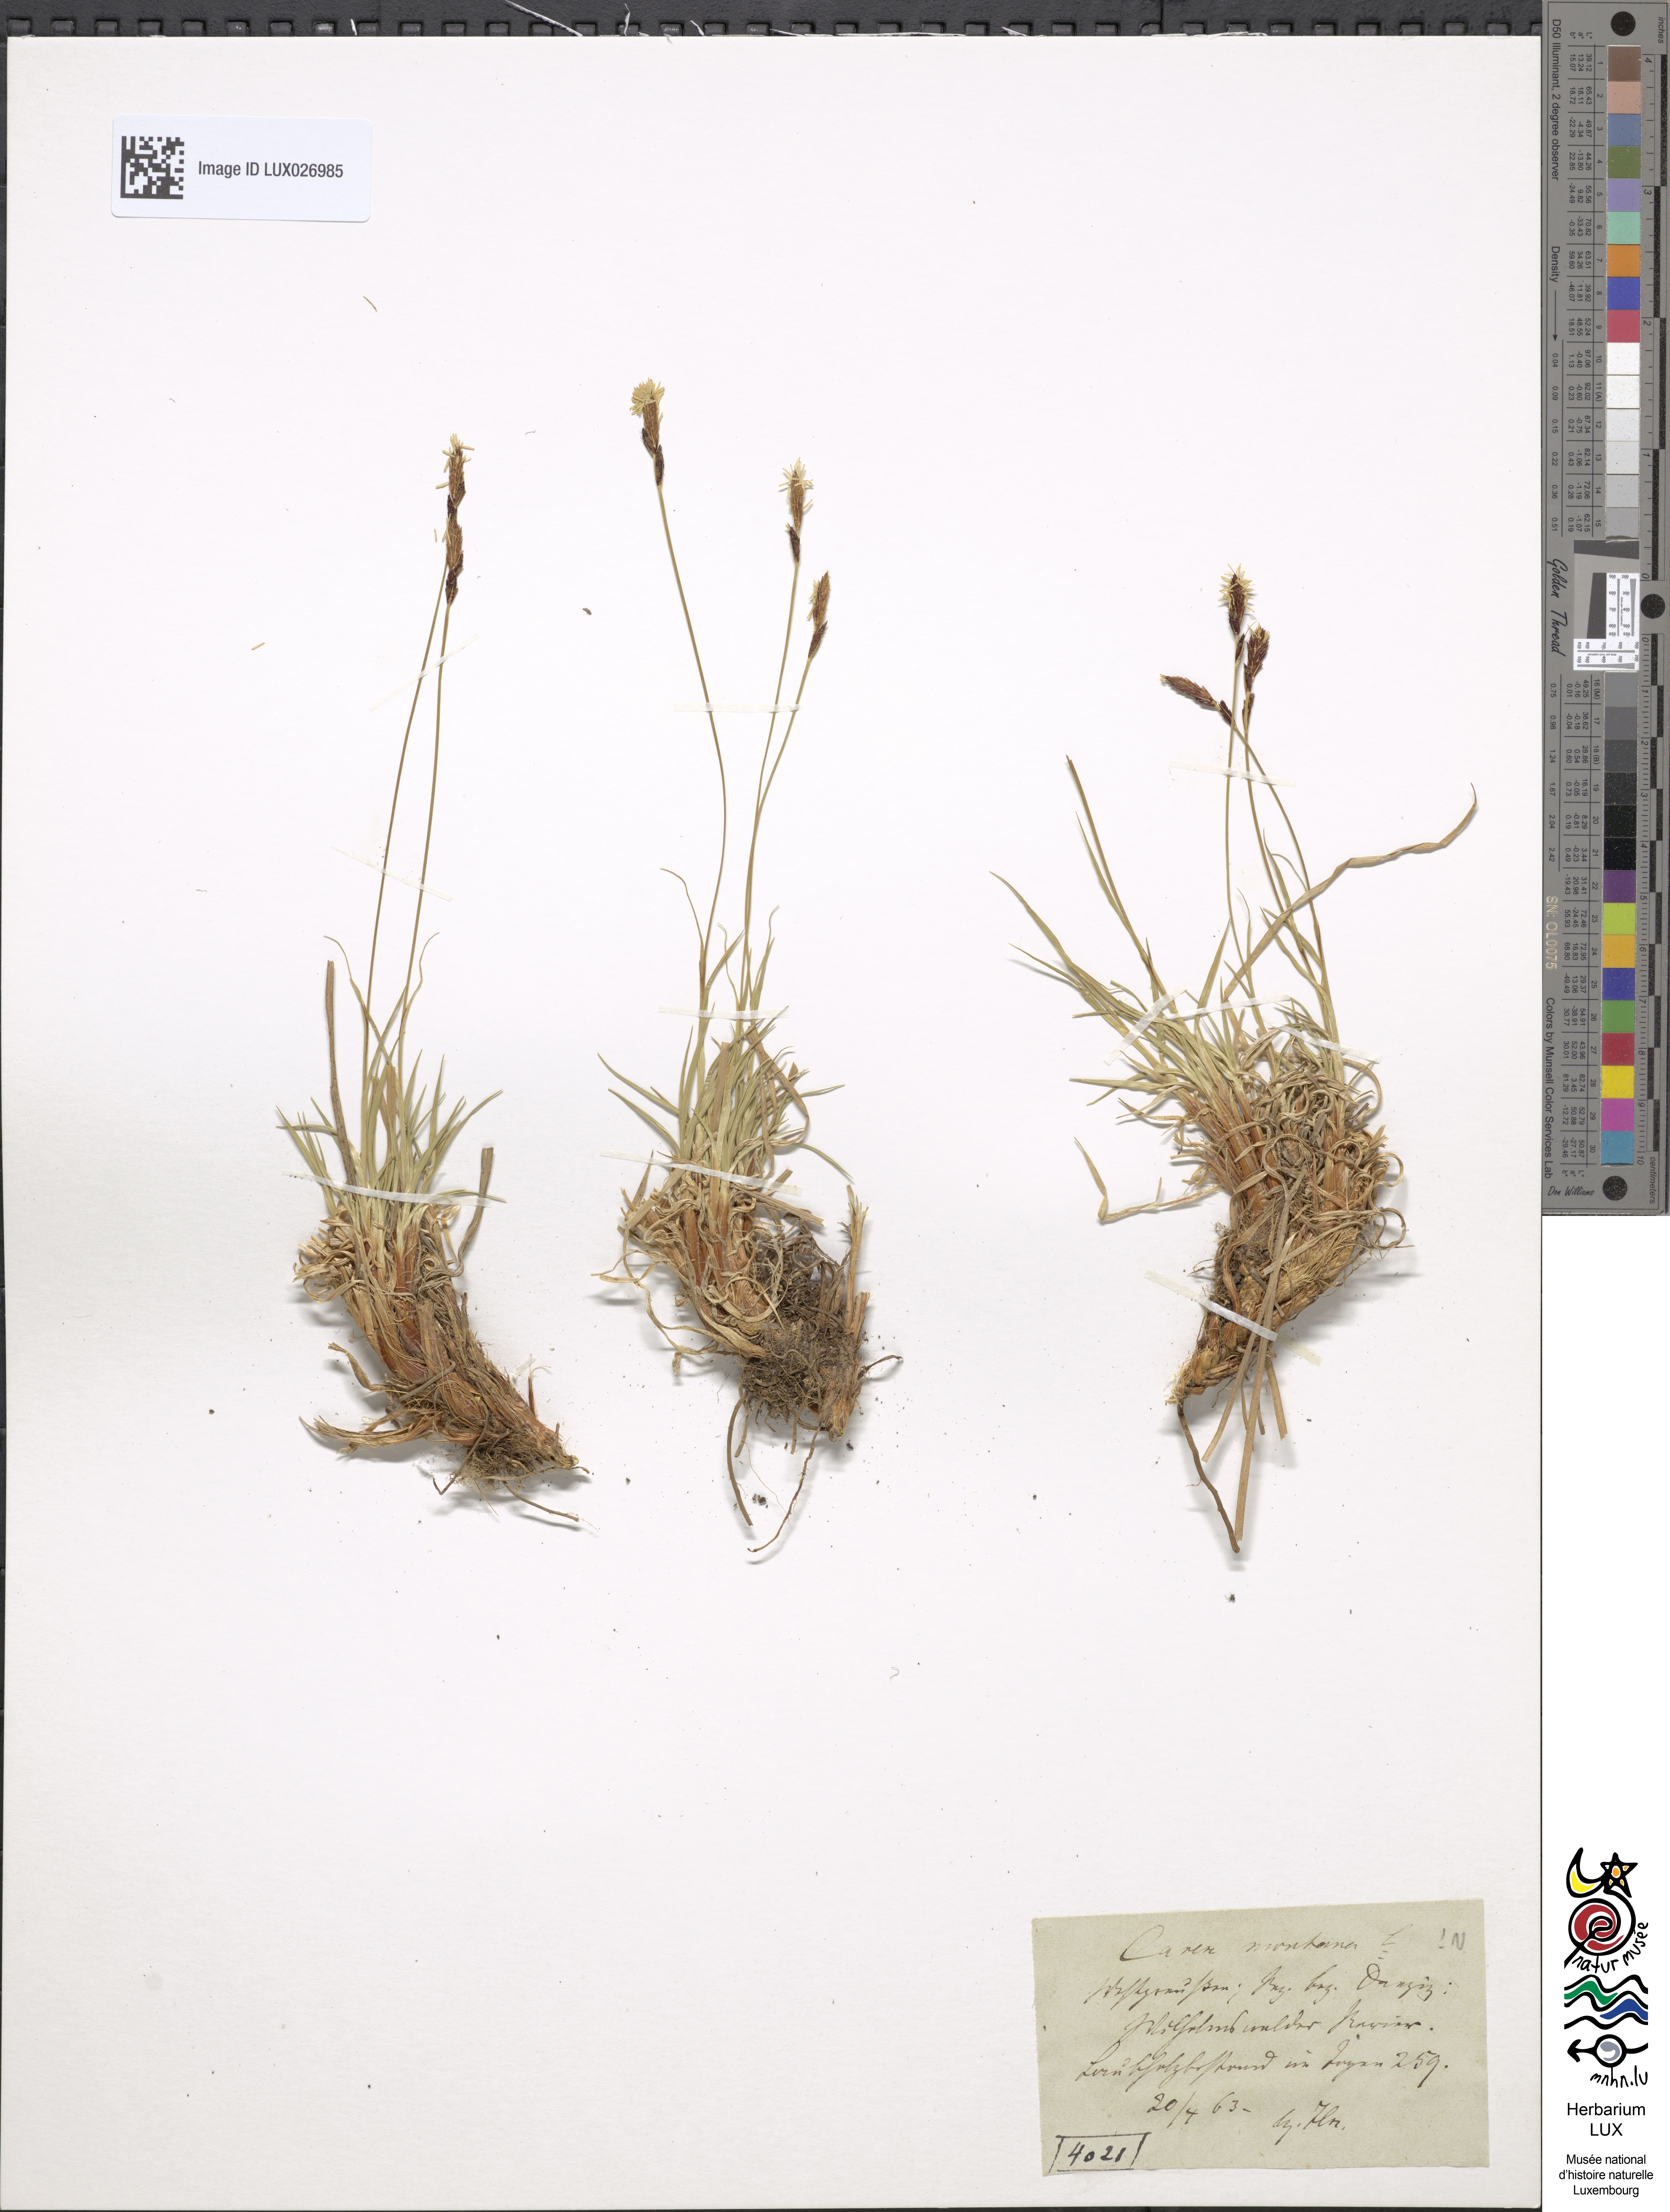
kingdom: Plantae
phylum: Tracheophyta
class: Liliopsida
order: Poales
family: Cyperaceae
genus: Carex
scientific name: Carex montana
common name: Soft-leaved sedge
